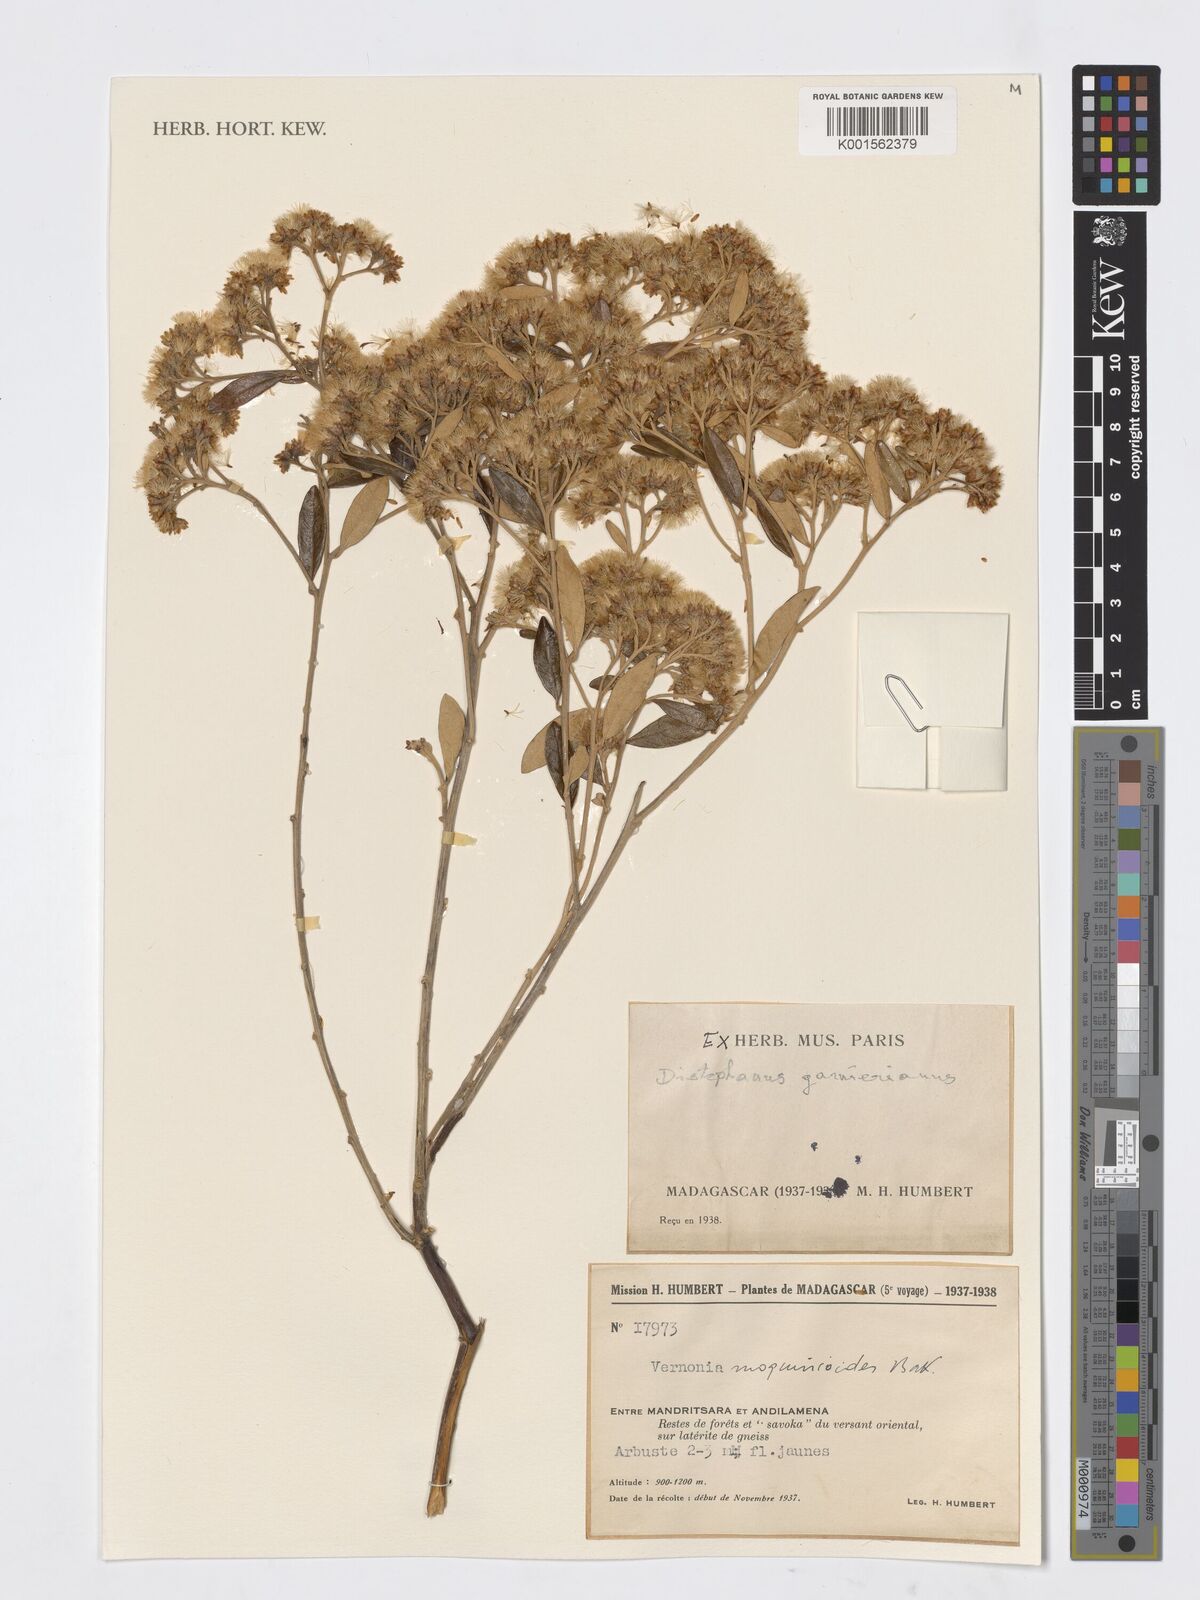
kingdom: Plantae
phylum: Tracheophyta
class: Magnoliopsida
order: Asterales
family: Asteraceae
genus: Distephanus
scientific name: Distephanus garnierianus
